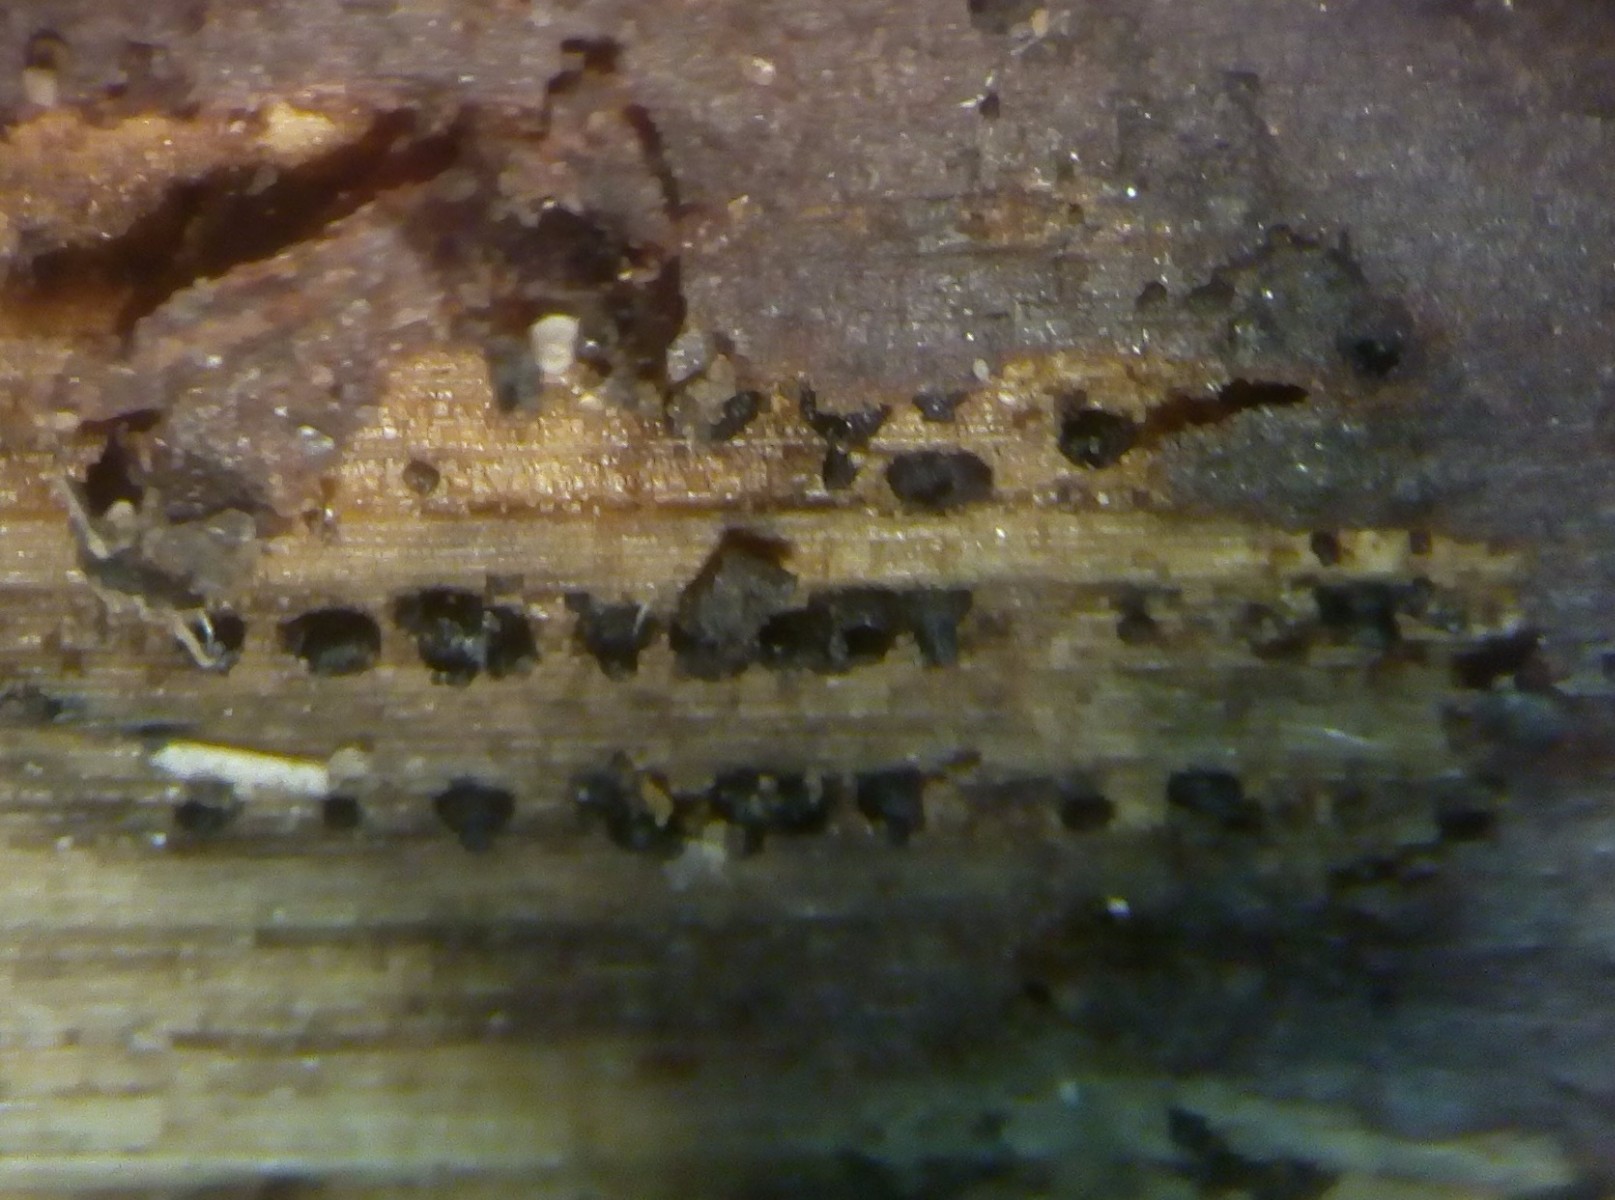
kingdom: Fungi
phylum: Ascomycota
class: Dothideomycetes
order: Pleosporales
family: Leptosphaeriaceae
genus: Leptosphaeria
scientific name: Leptosphaeria doliolum
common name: skærm-kulkegle
